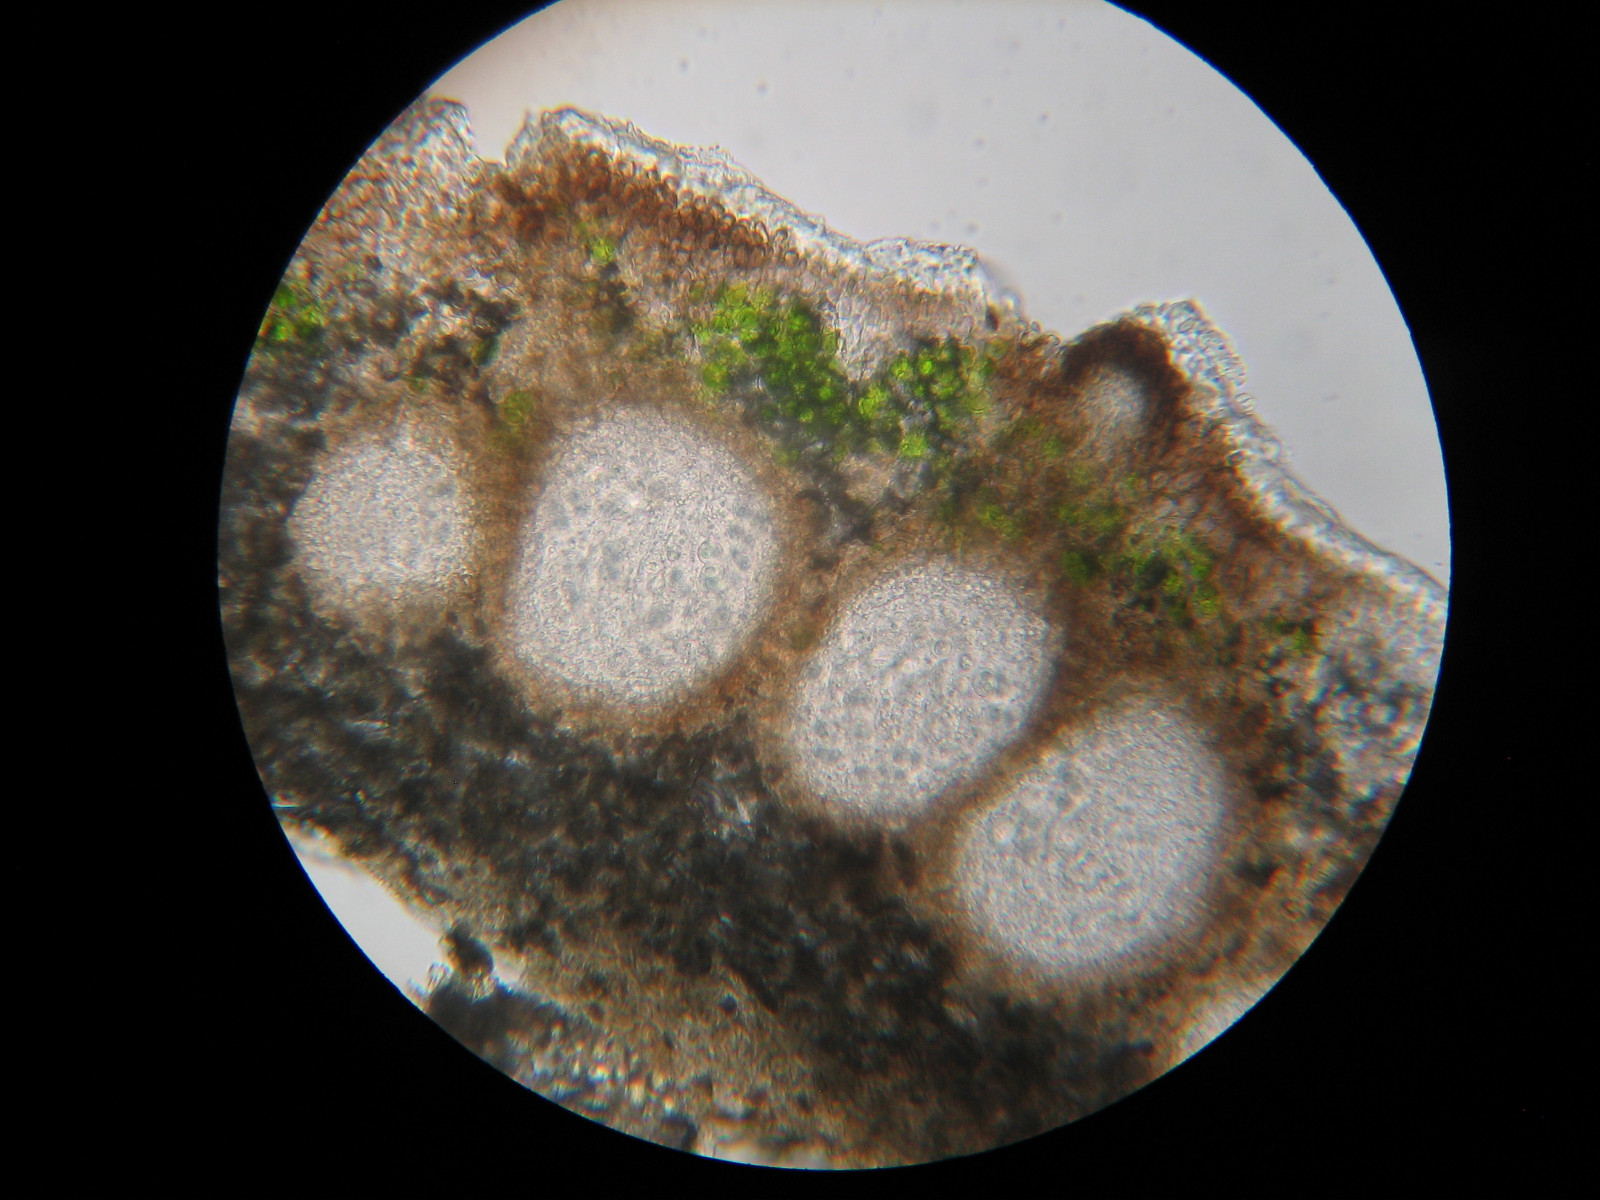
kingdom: Fungi
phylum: Ascomycota
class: Sordariomycetes
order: Phyllachorales
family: Phyllachoraceae
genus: Lichenochora
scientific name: Lichenochora weillii
